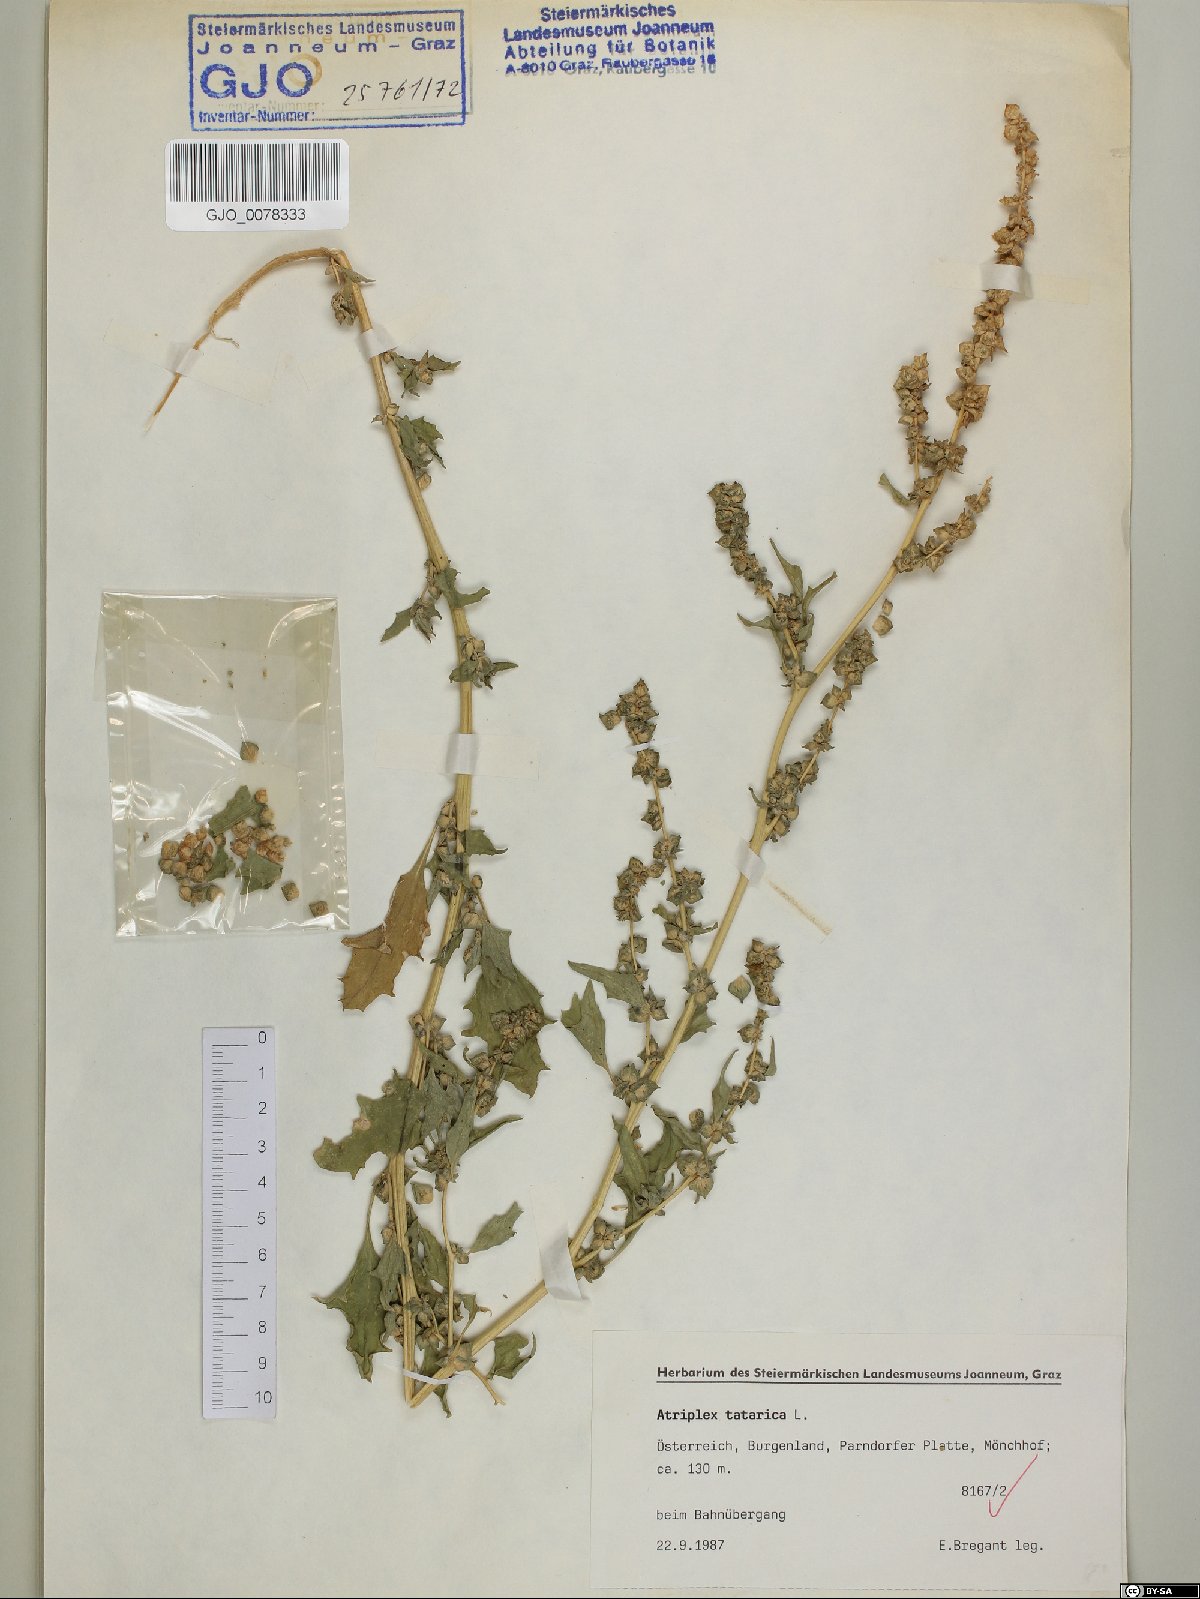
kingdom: Plantae
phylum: Tracheophyta
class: Magnoliopsida
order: Caryophyllales
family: Amaranthaceae
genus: Atriplex
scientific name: Atriplex tatarica
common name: Tatarian orache
